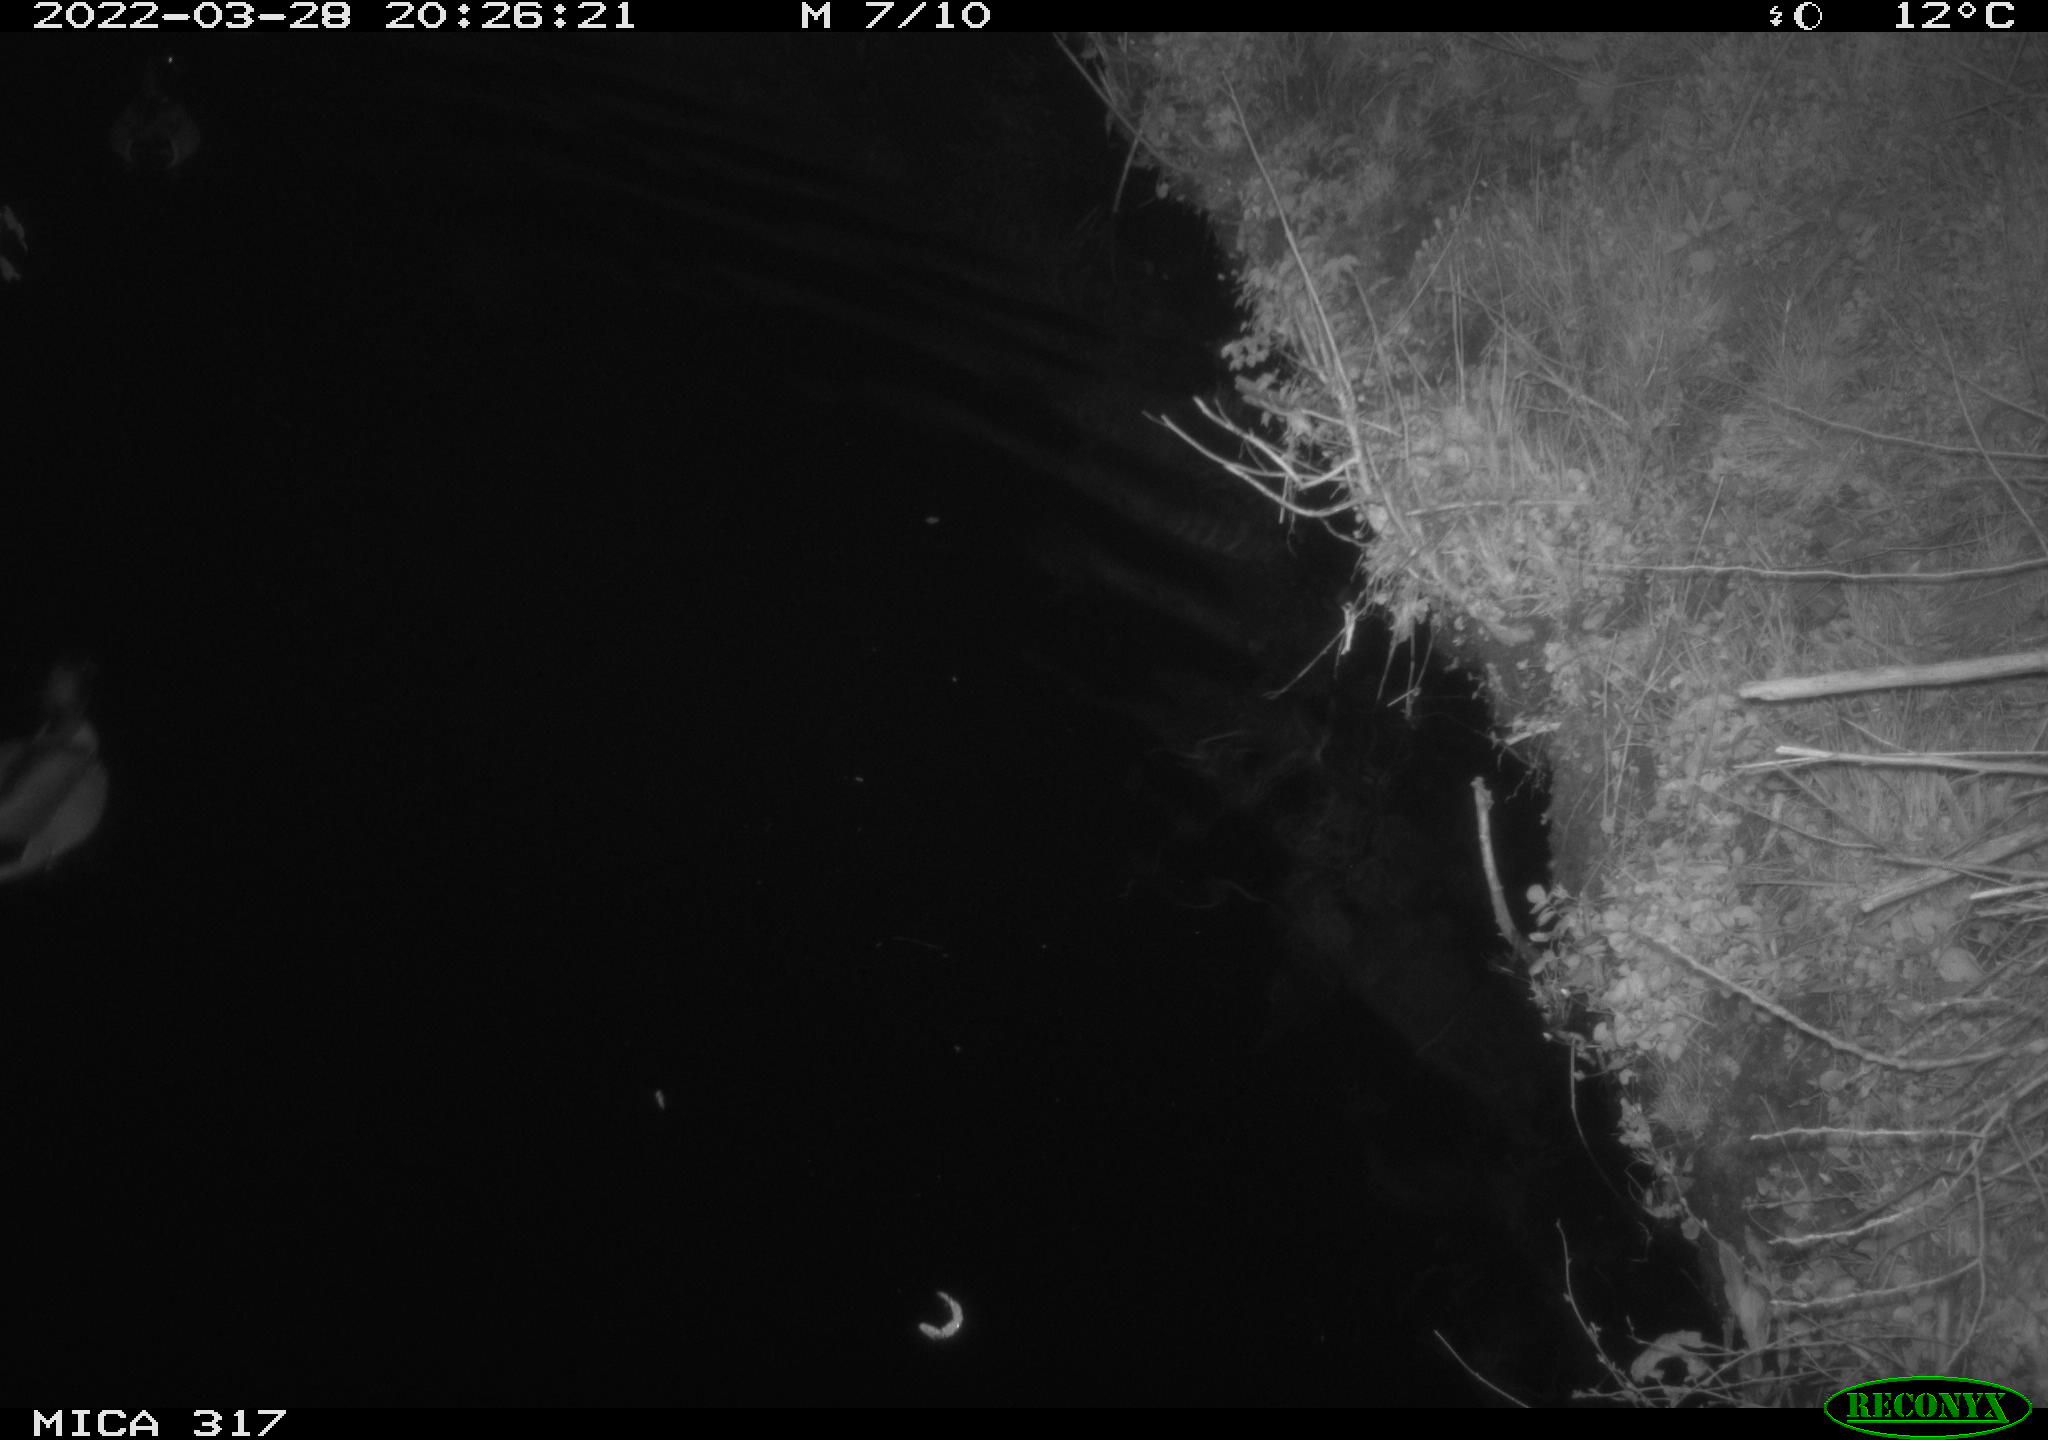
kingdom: Animalia
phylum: Chordata
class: Aves
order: Anseriformes
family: Anatidae
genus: Anas
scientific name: Anas platyrhynchos
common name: Mallard
